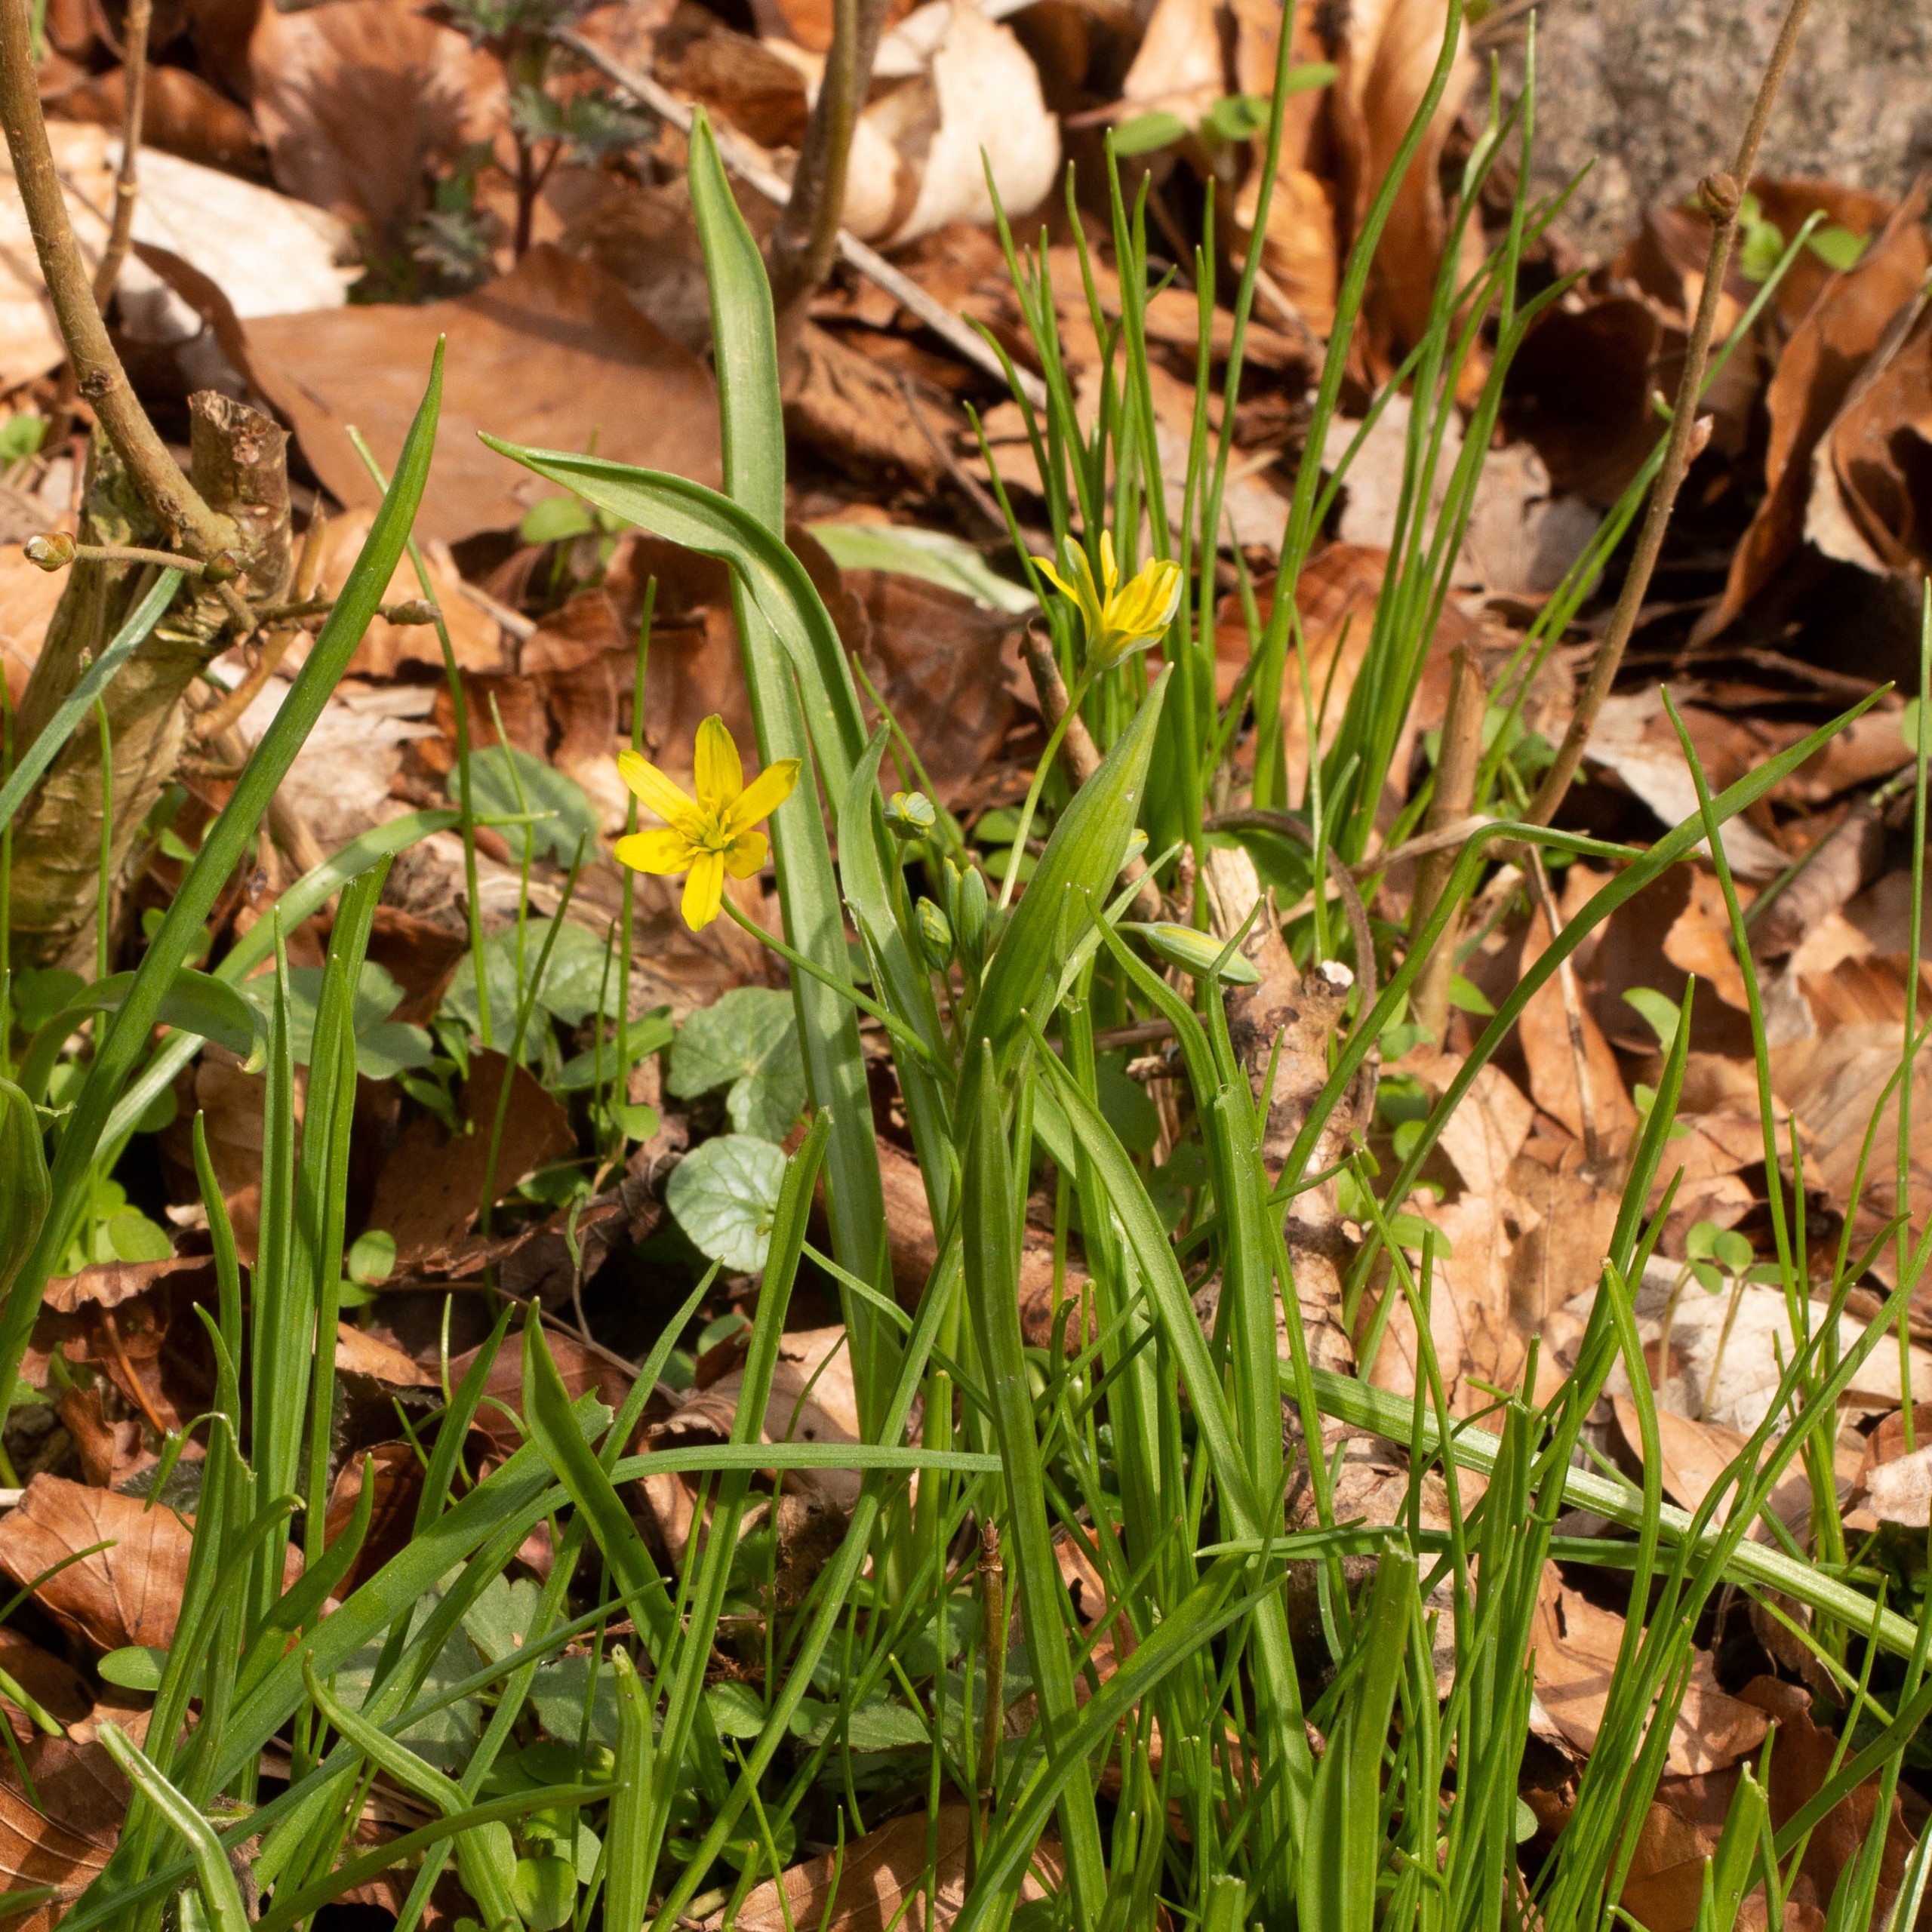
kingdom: Plantae
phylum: Tracheophyta
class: Liliopsida
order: Liliales
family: Liliaceae
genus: Gagea
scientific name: Gagea lutea
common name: Almindelig guldstjerne
